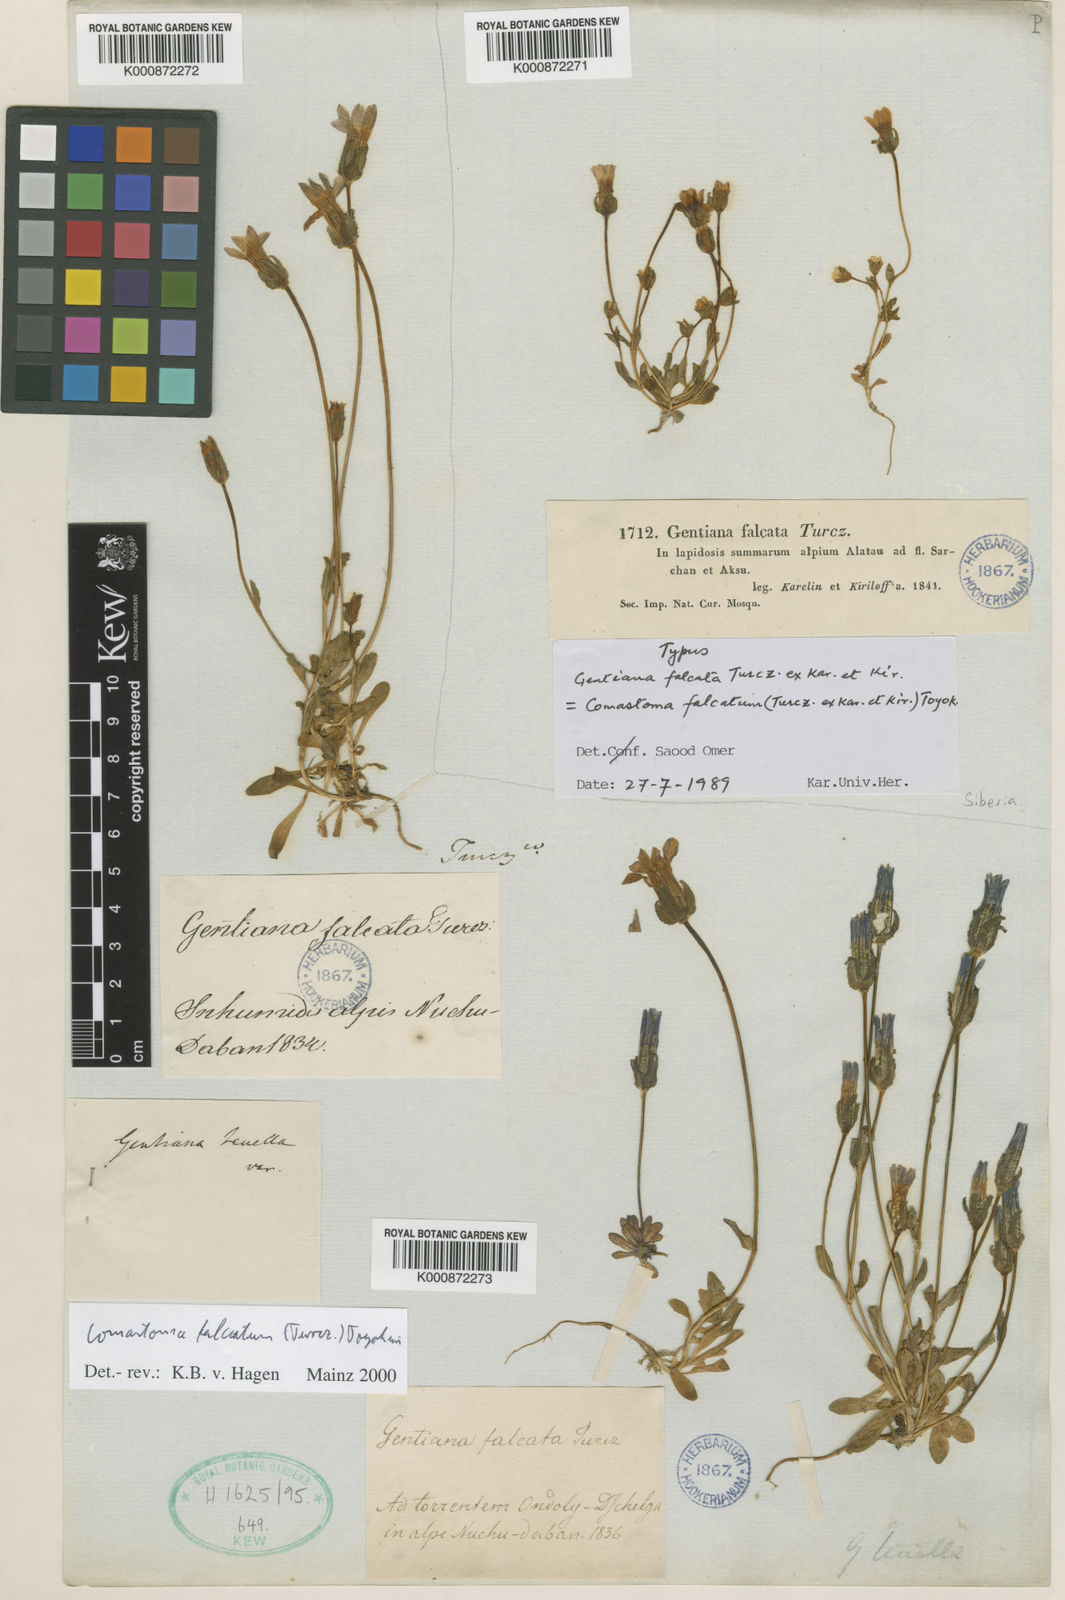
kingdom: Plantae
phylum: Tracheophyta
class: Magnoliopsida
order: Gentianales
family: Gentianaceae
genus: Comastoma
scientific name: Comastoma falcatum
